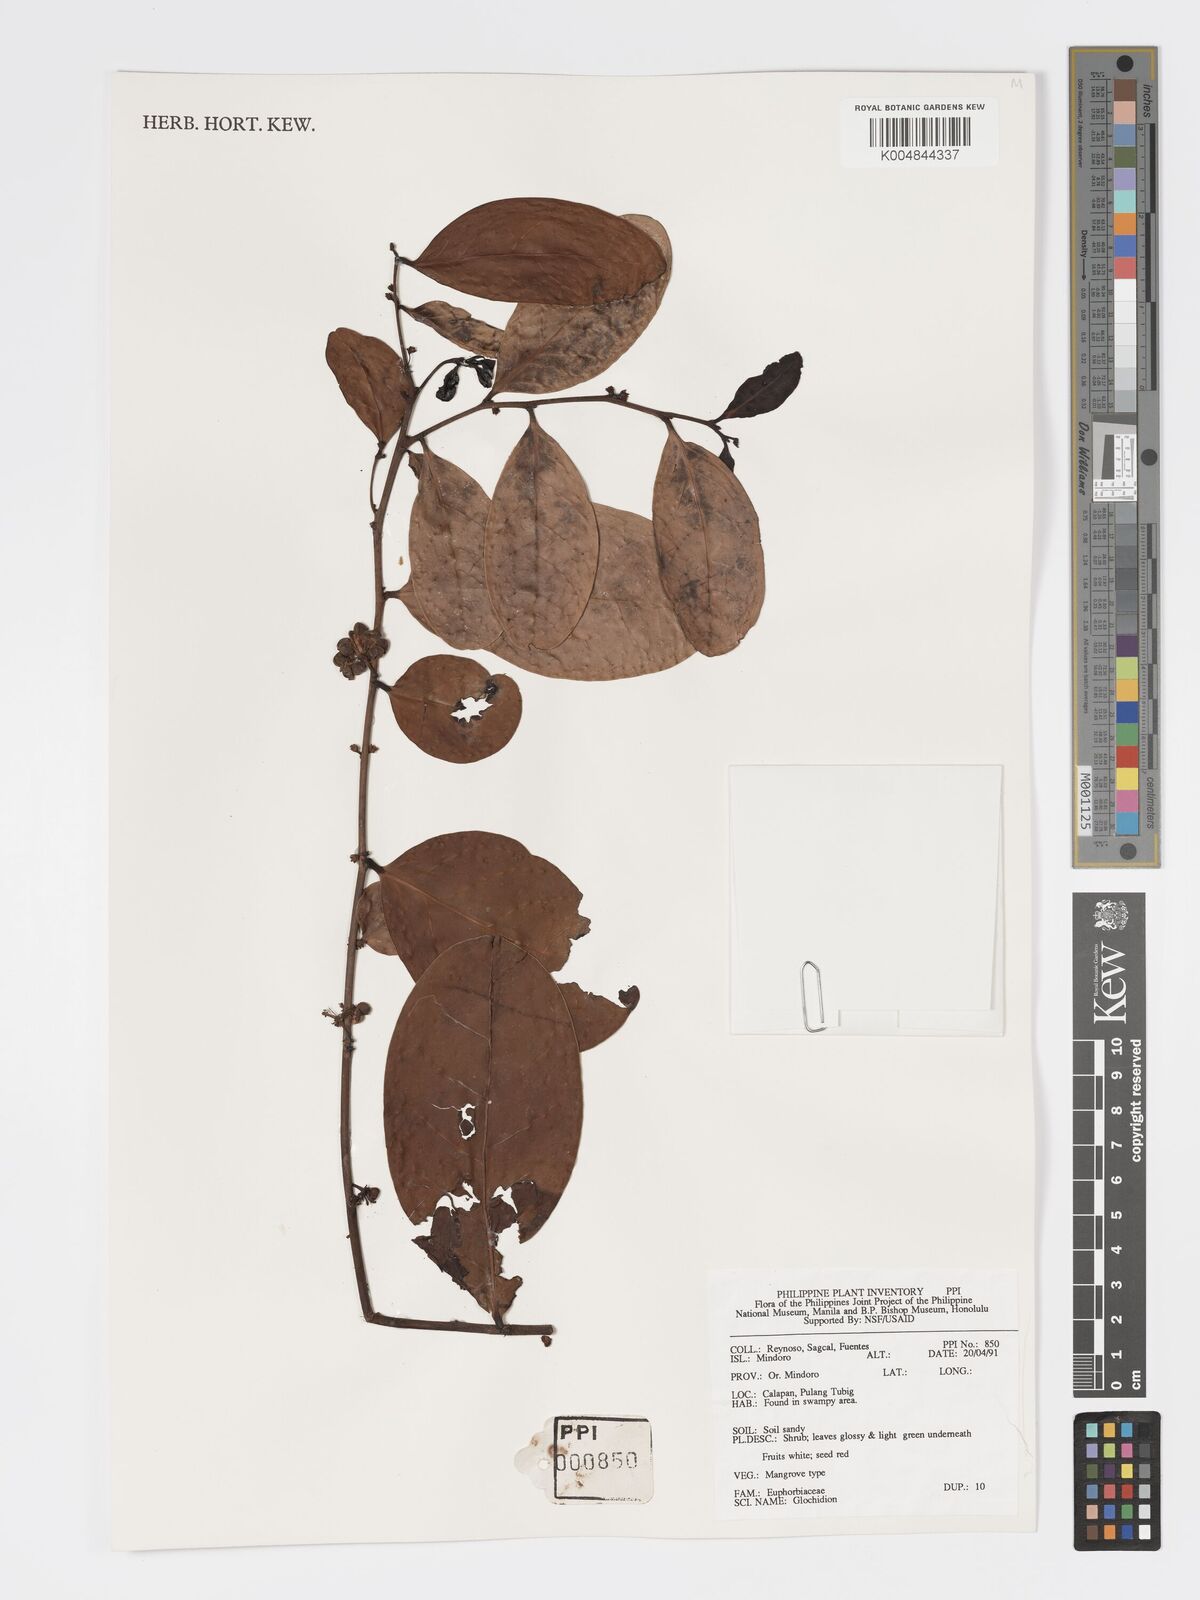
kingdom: Plantae
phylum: Tracheophyta
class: Magnoliopsida
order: Malpighiales
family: Phyllanthaceae
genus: Glochidion
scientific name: Glochidion
